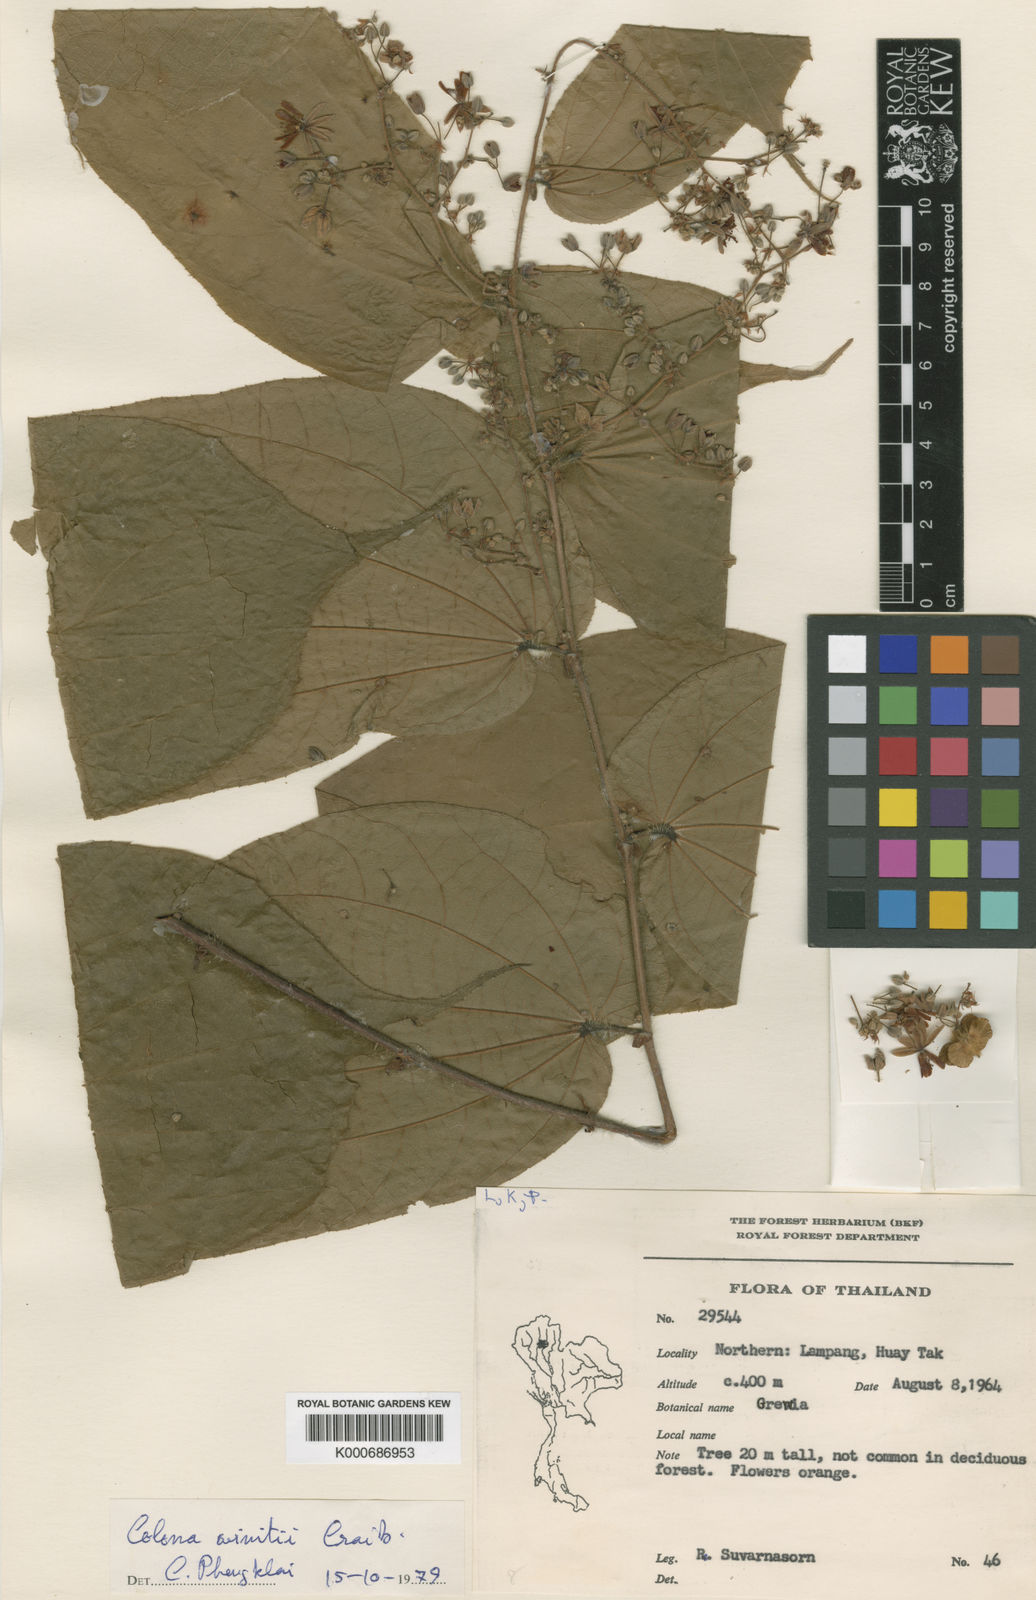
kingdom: Plantae
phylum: Tracheophyta
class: Magnoliopsida
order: Malvales
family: Malvaceae
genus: Colona
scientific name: Colona winitii
